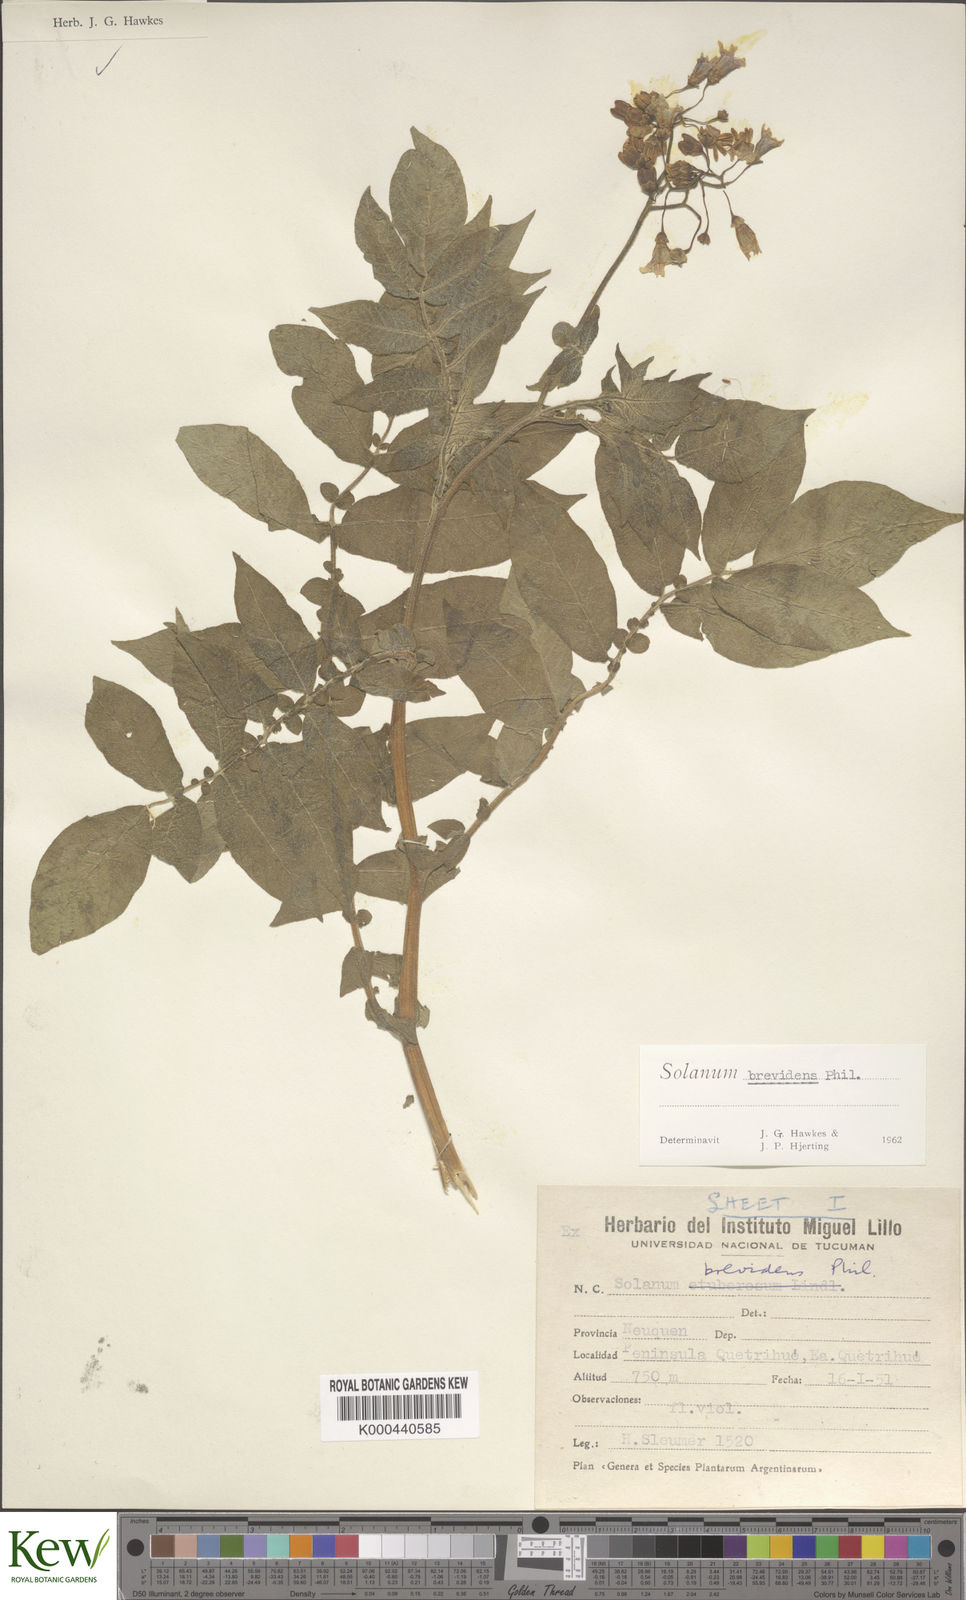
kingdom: Plantae
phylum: Tracheophyta
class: Magnoliopsida
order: Solanales
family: Solanaceae
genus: Solanum
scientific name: Solanum palustre
